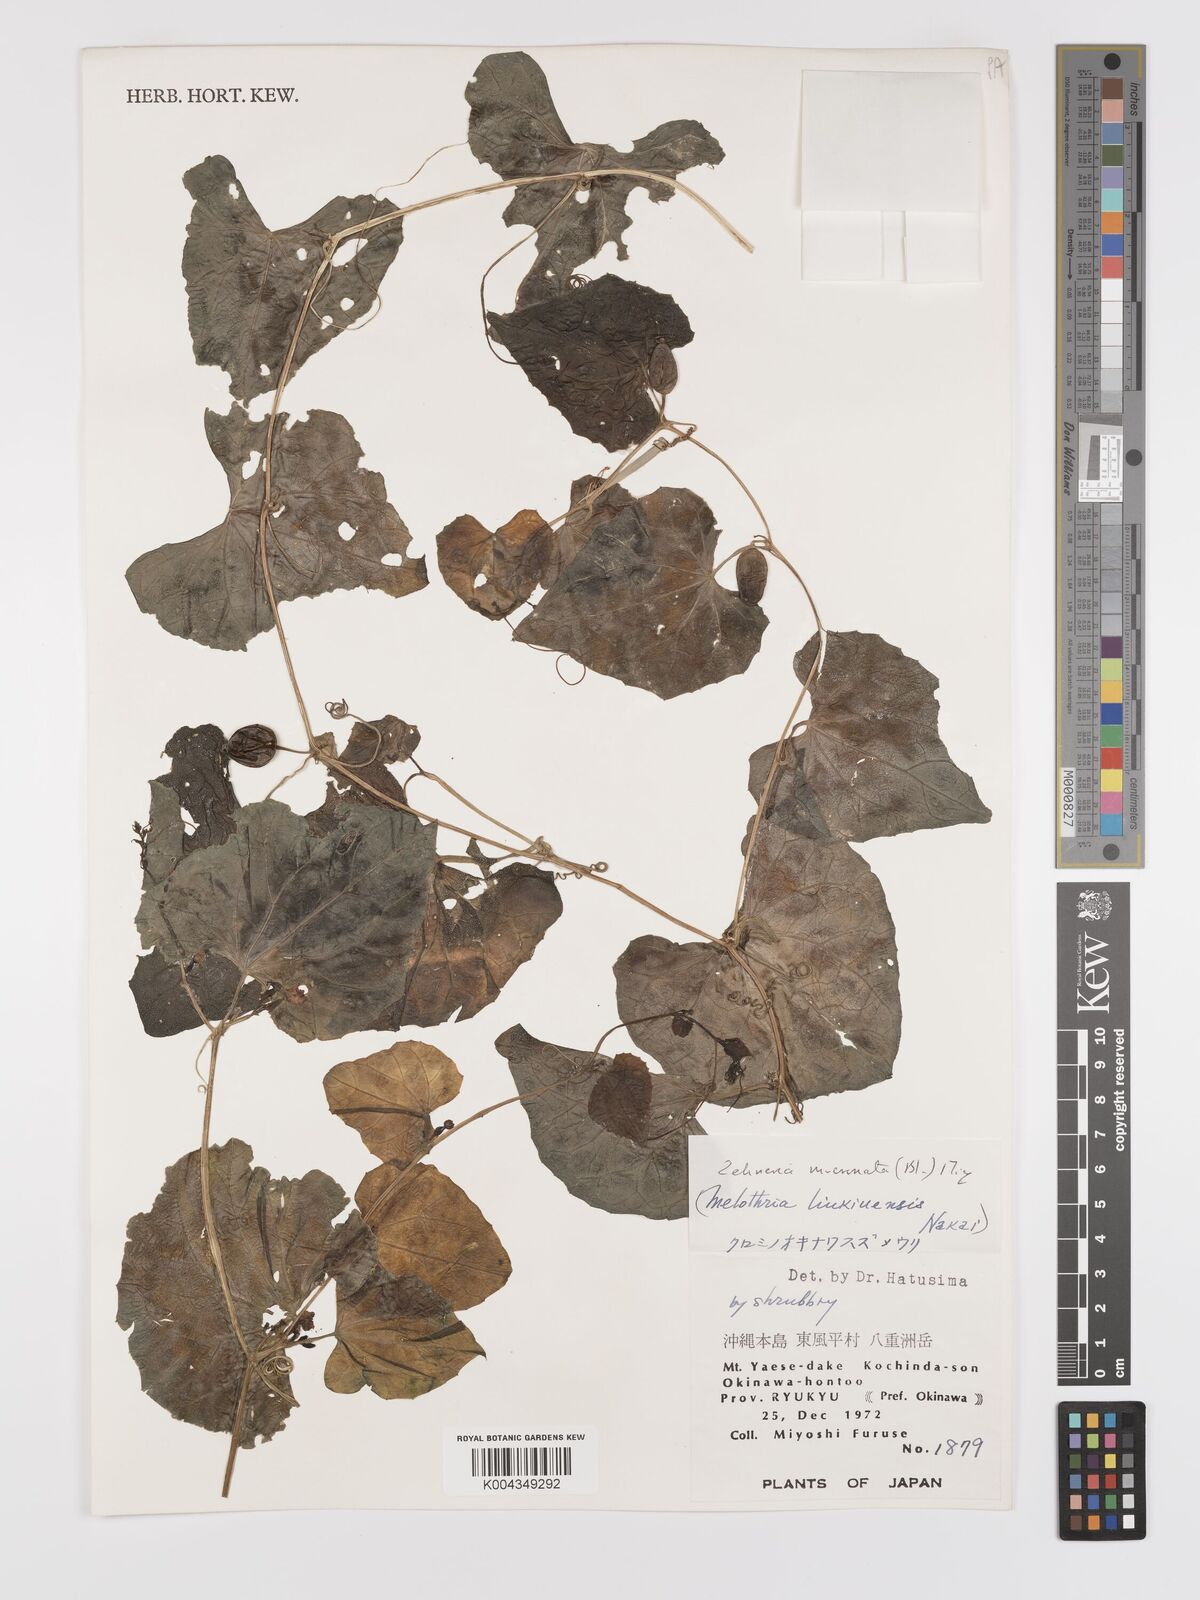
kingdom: Plantae
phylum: Tracheophyta
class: Magnoliopsida
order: Cucurbitales
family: Cucurbitaceae
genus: Zehneria
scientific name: Zehneria mucronata
